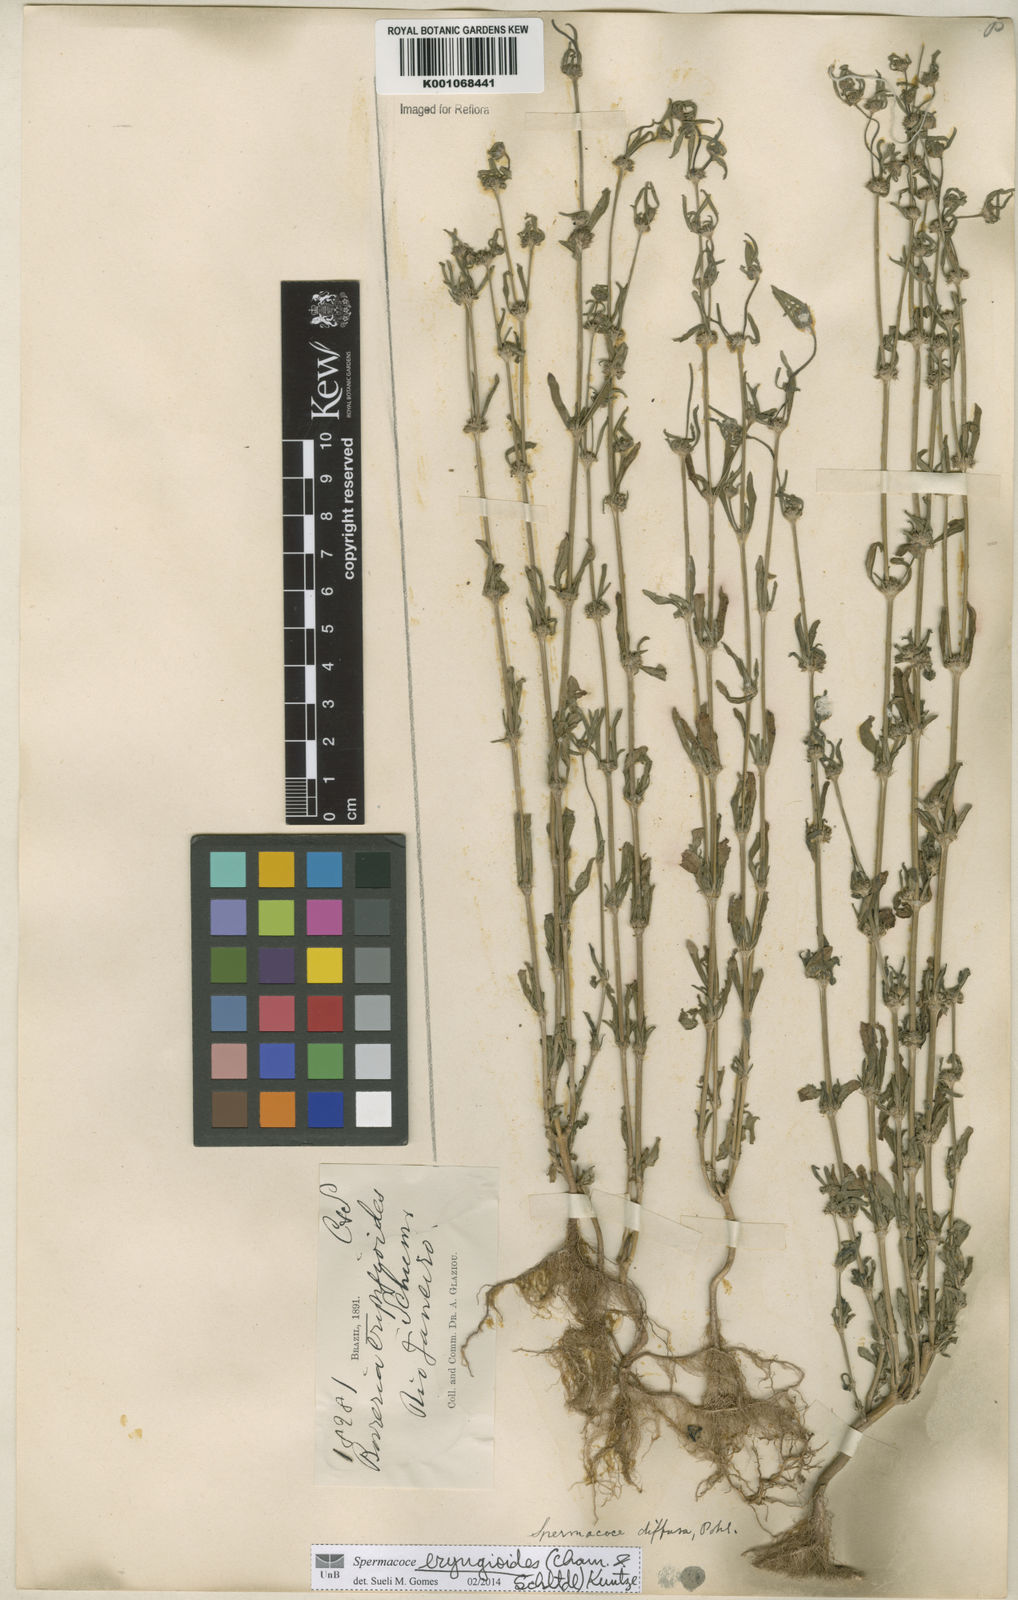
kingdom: Plantae
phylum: Tracheophyta
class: Magnoliopsida
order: Gentianales
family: Rubiaceae
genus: Spermacoce
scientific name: Spermacoce eryngioides
